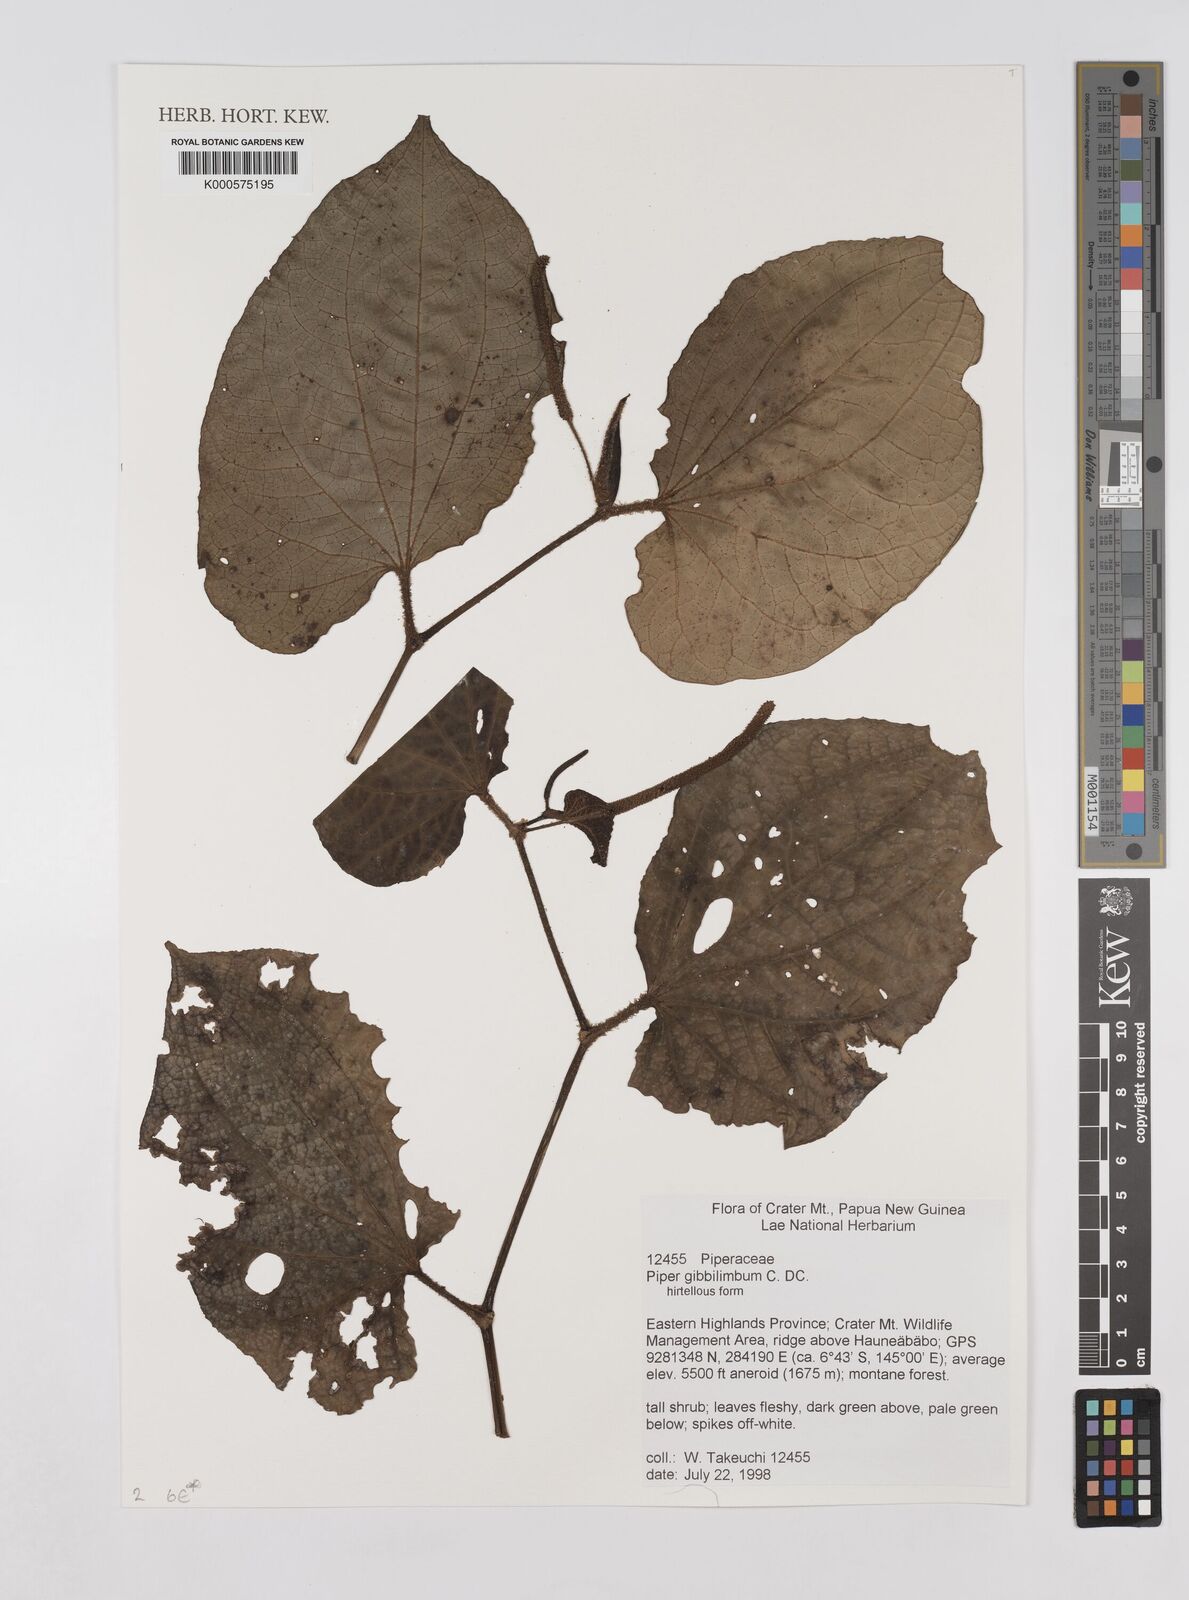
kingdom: Plantae
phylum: Tracheophyta
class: Magnoliopsida
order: Piperales
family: Piperaceae
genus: Piper
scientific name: Piper gibbilimbum
